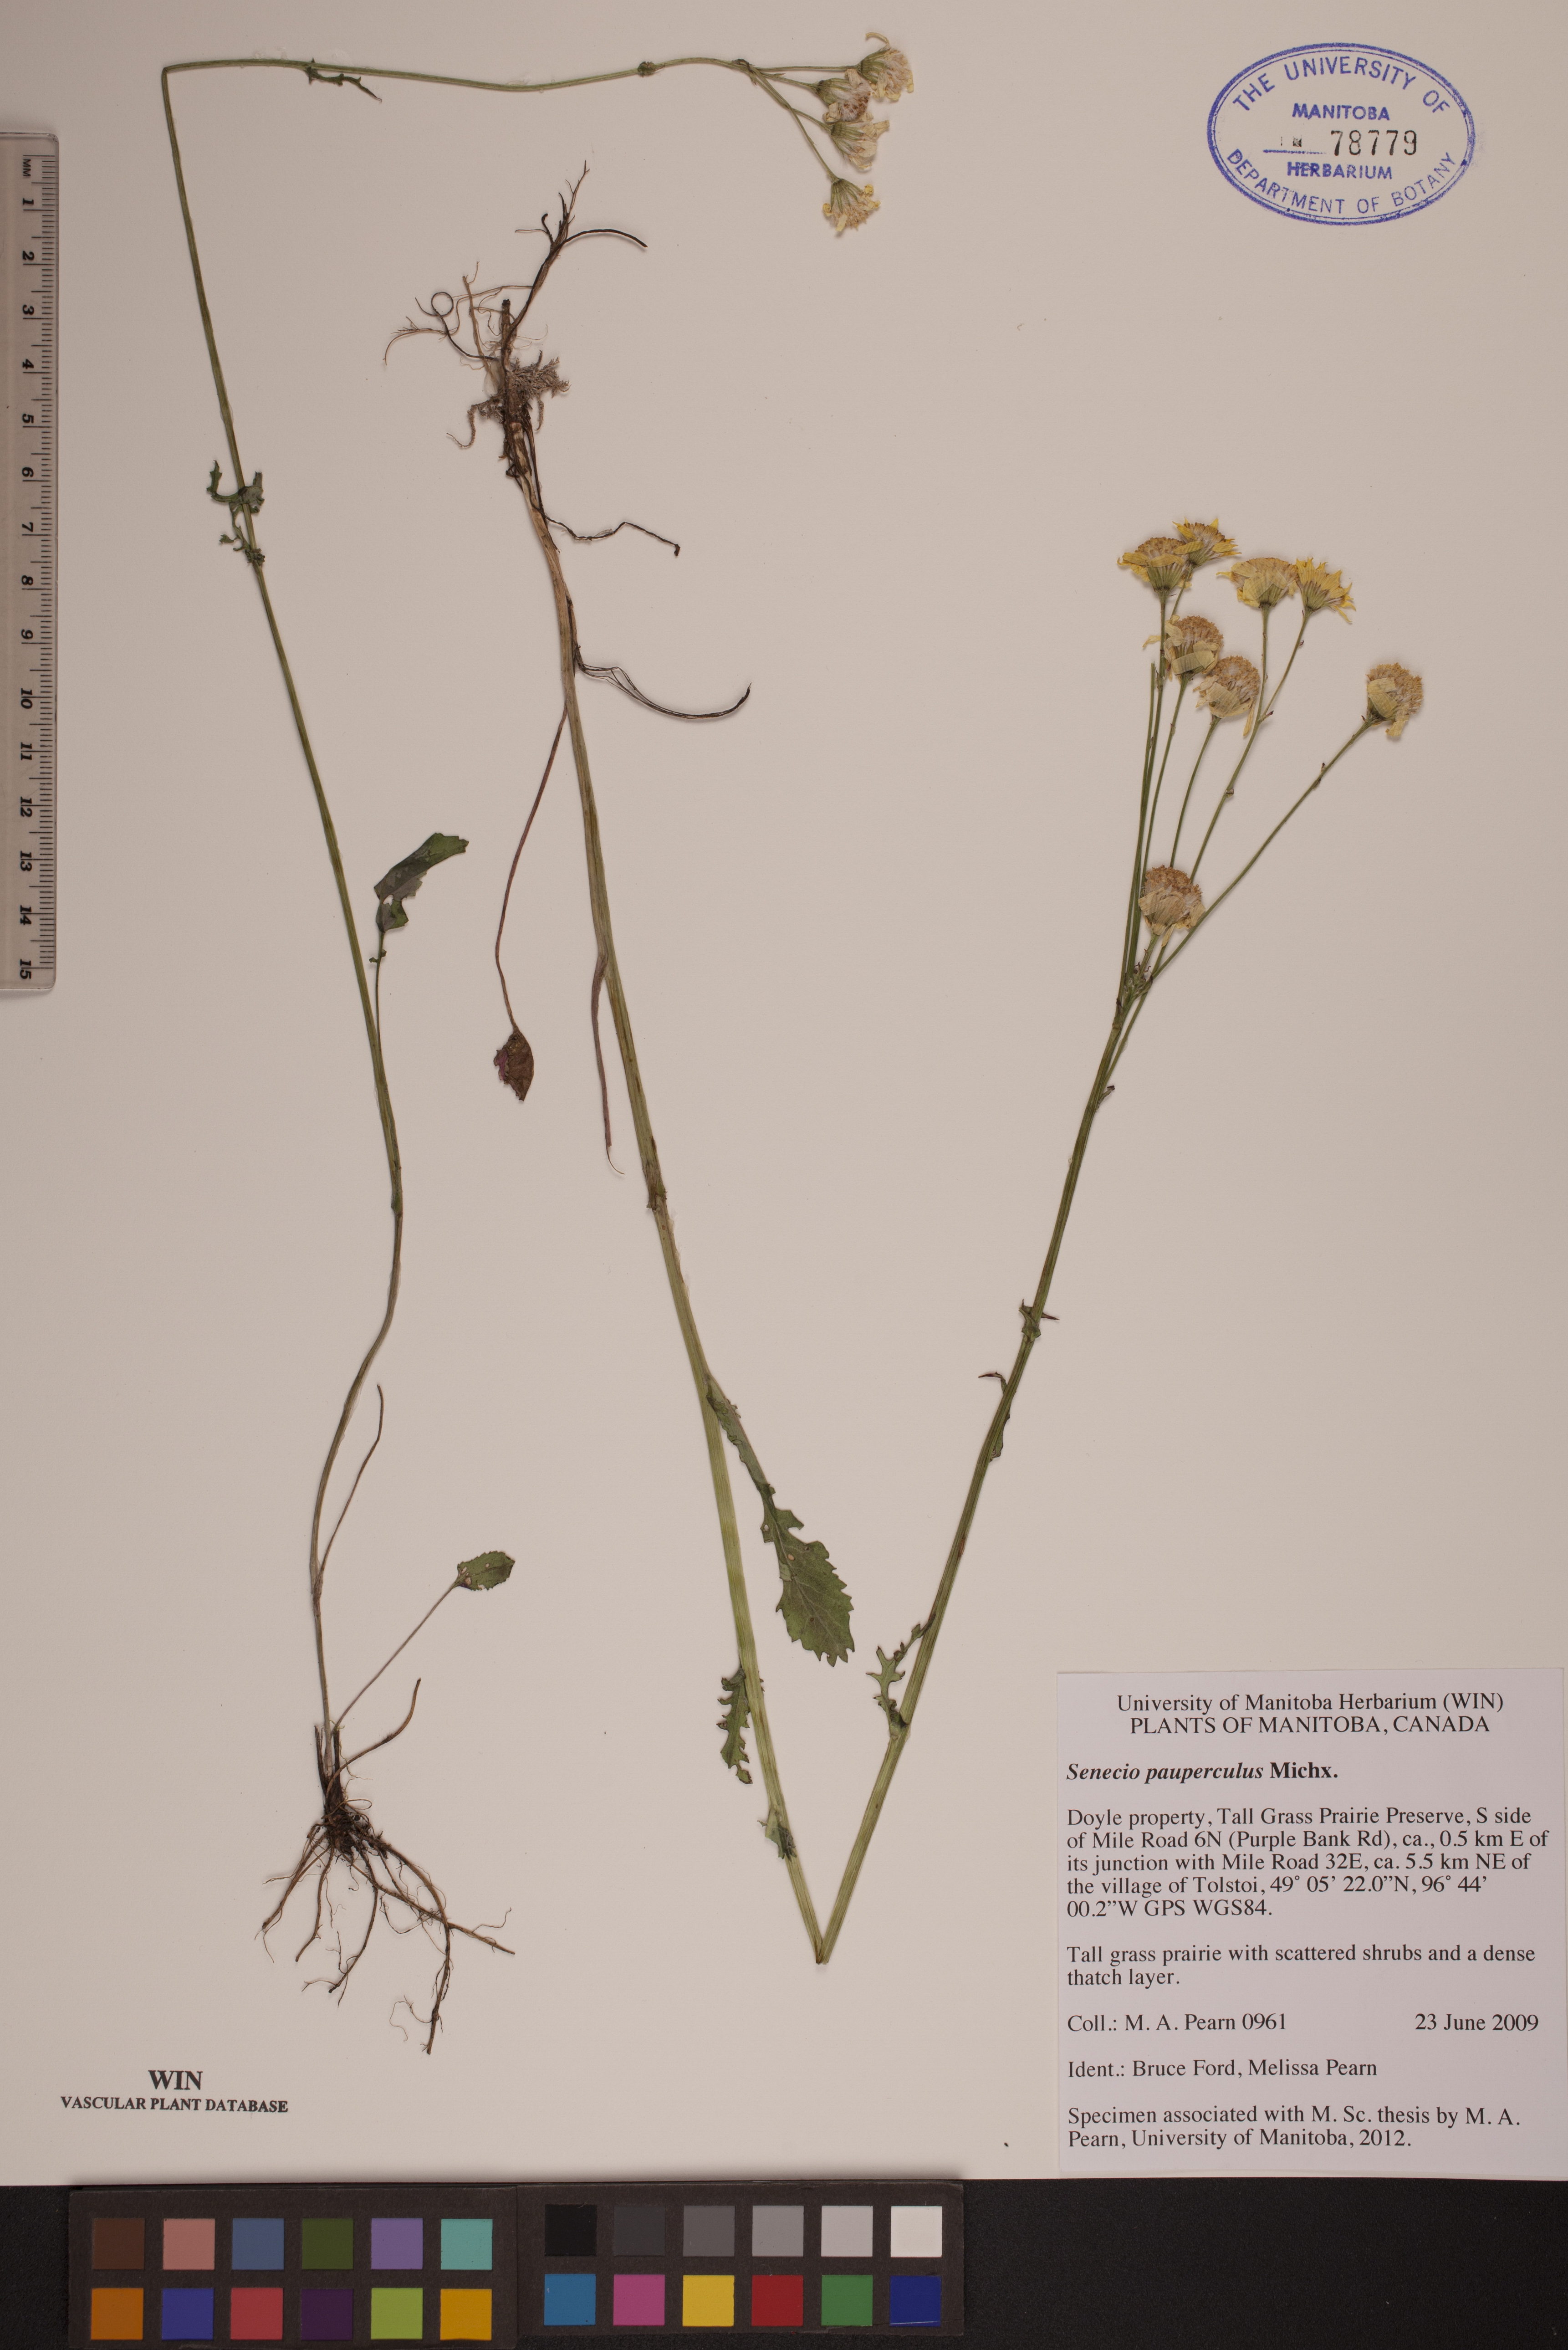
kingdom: Plantae
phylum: Tracheophyta
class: Magnoliopsida
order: Asterales
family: Asteraceae
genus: Packera
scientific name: Packera paupercula
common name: Balsam groundsel
